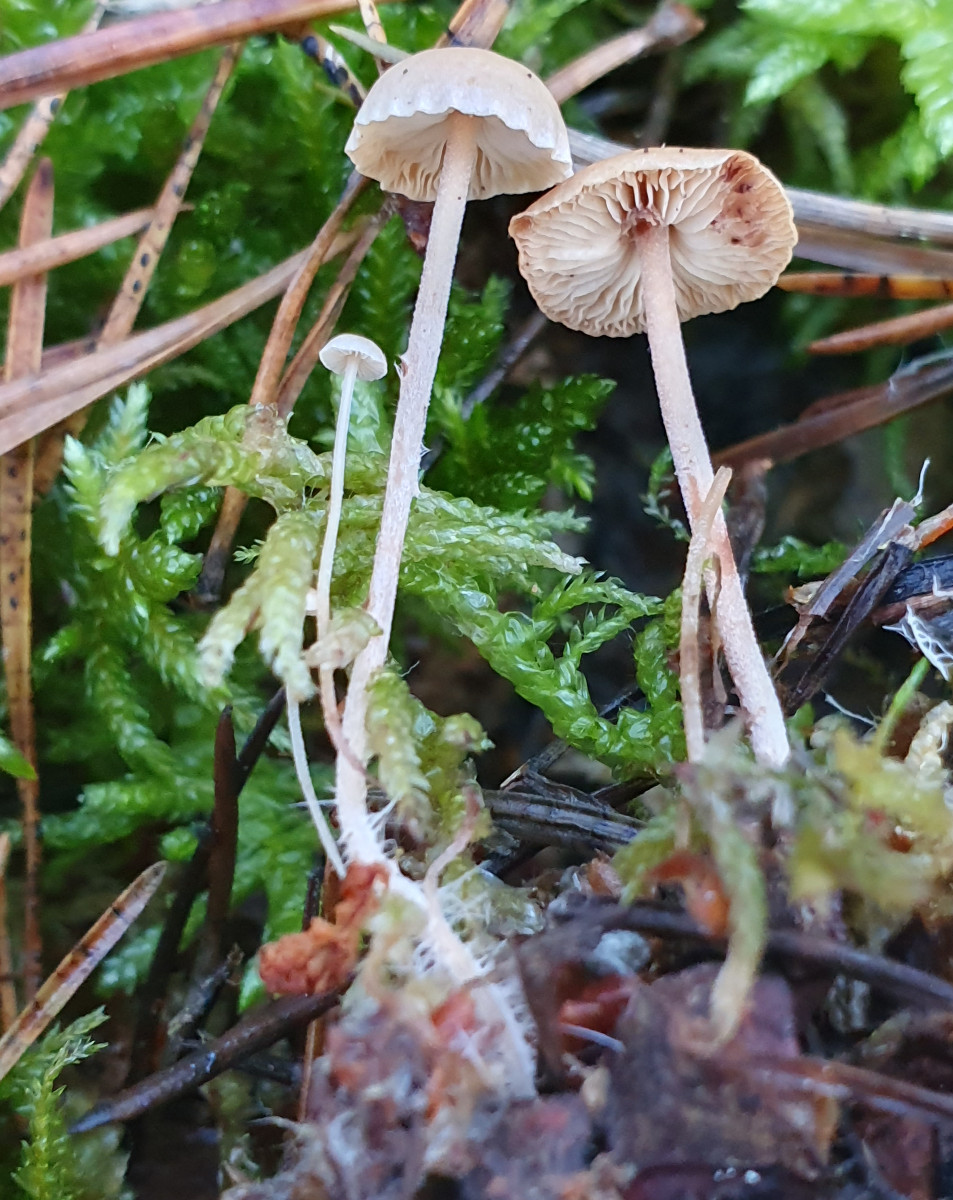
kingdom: Fungi
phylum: Basidiomycota
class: Agaricomycetes
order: Agaricales
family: Marasmiaceae
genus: Baeospora
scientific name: Baeospora myosura
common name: koglebruskhat
